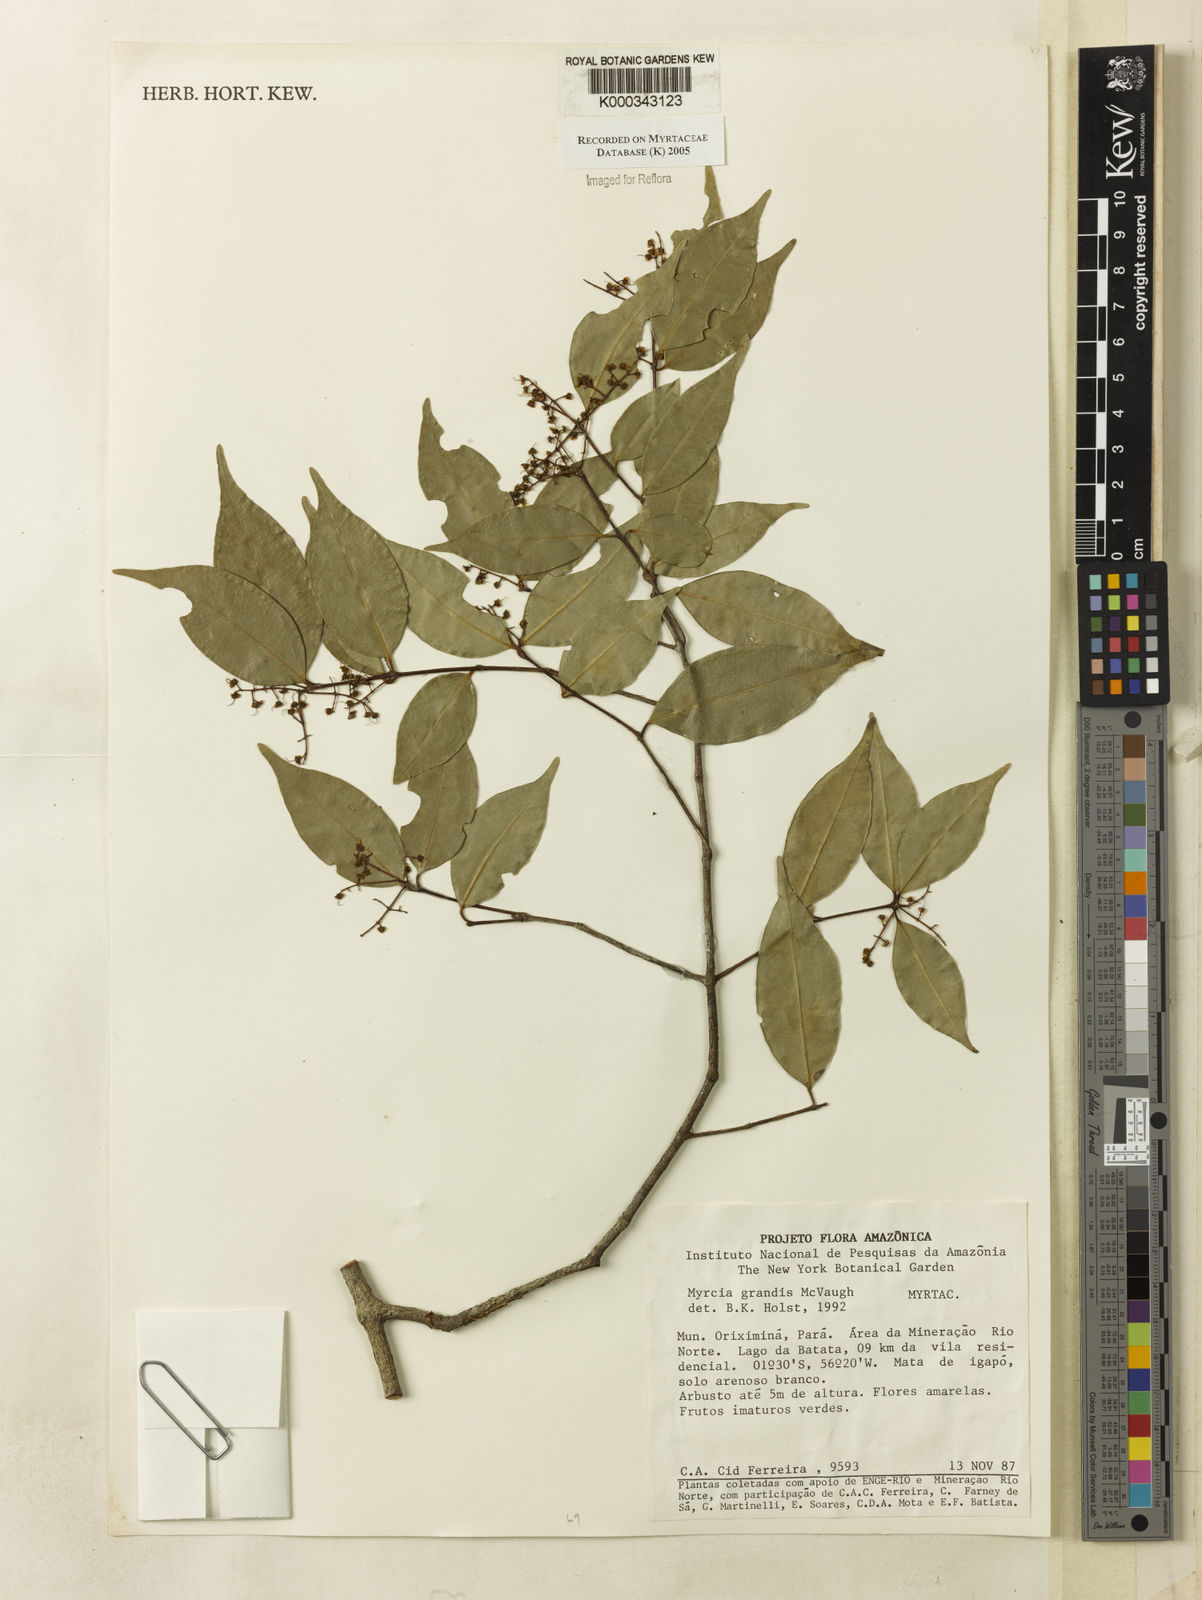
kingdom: Plantae
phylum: Tracheophyta
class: Magnoliopsida
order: Myrtales
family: Myrtaceae
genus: Myrcia
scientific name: Myrcia grandis
